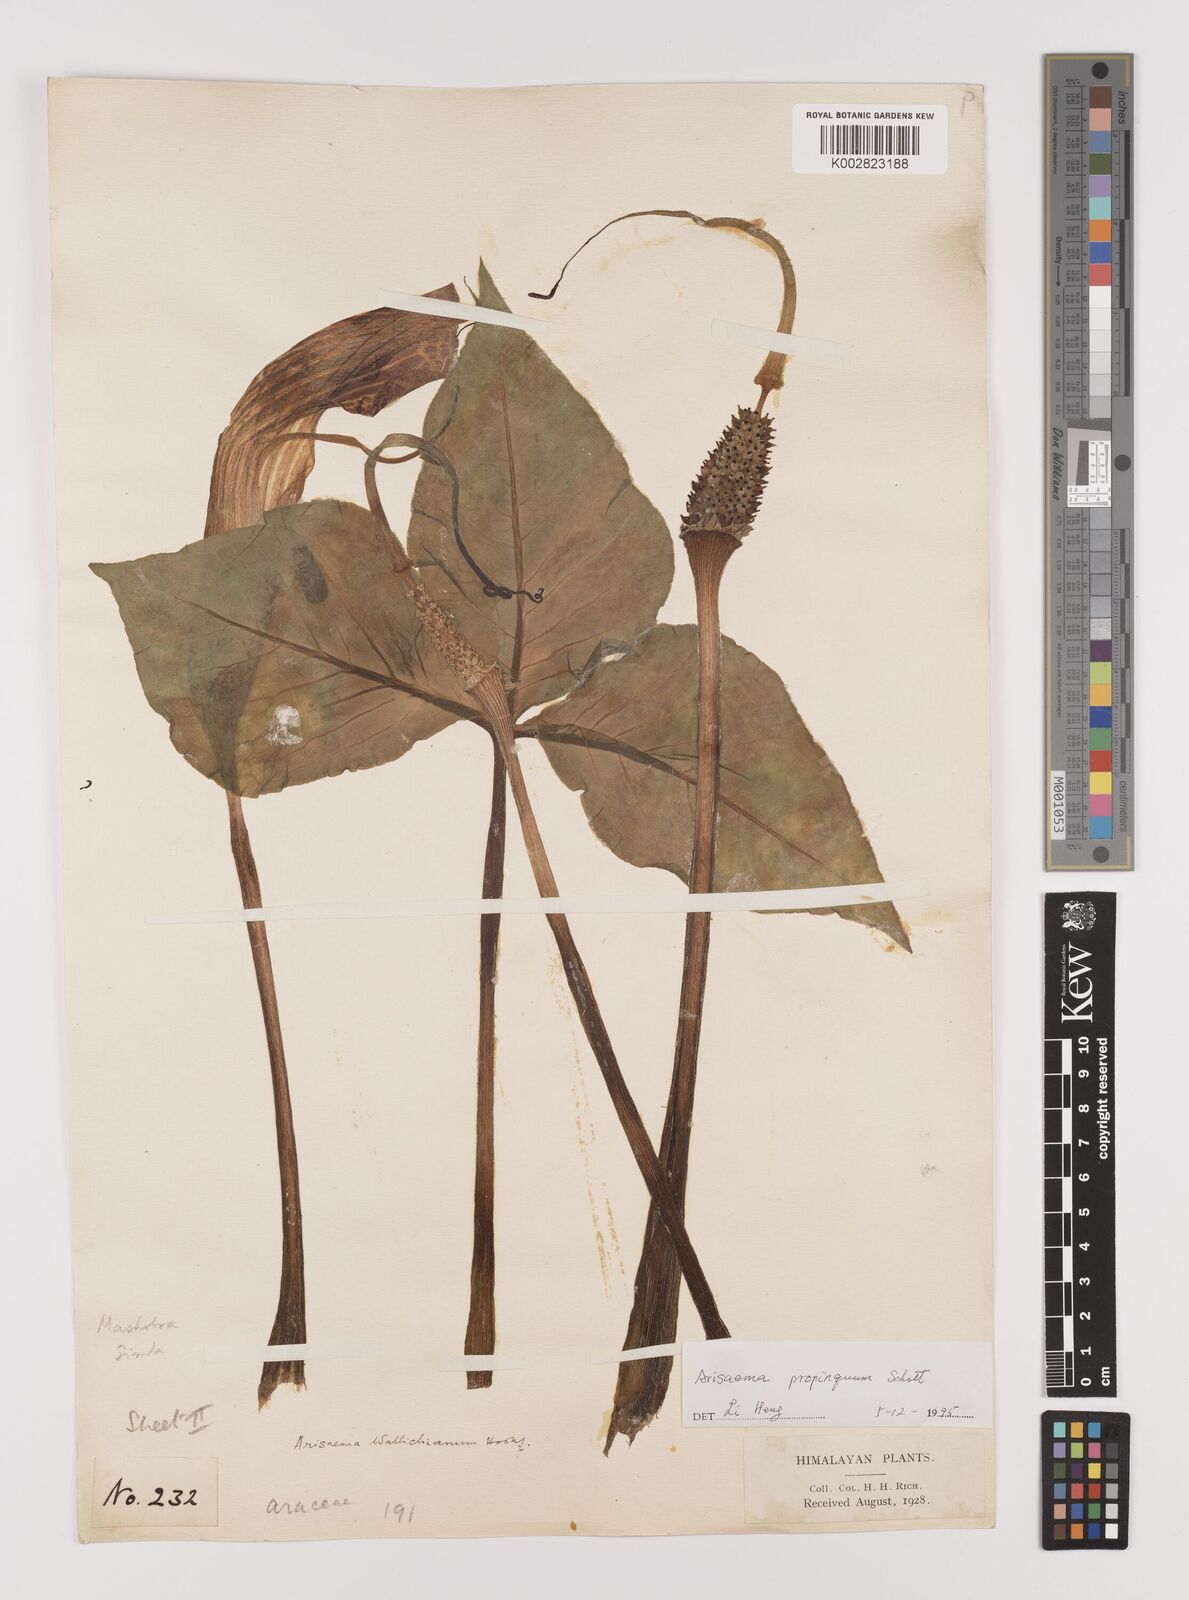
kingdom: Plantae
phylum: Tracheophyta
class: Liliopsida
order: Alismatales
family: Araceae
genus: Arisaema
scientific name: Arisaema propinquum
